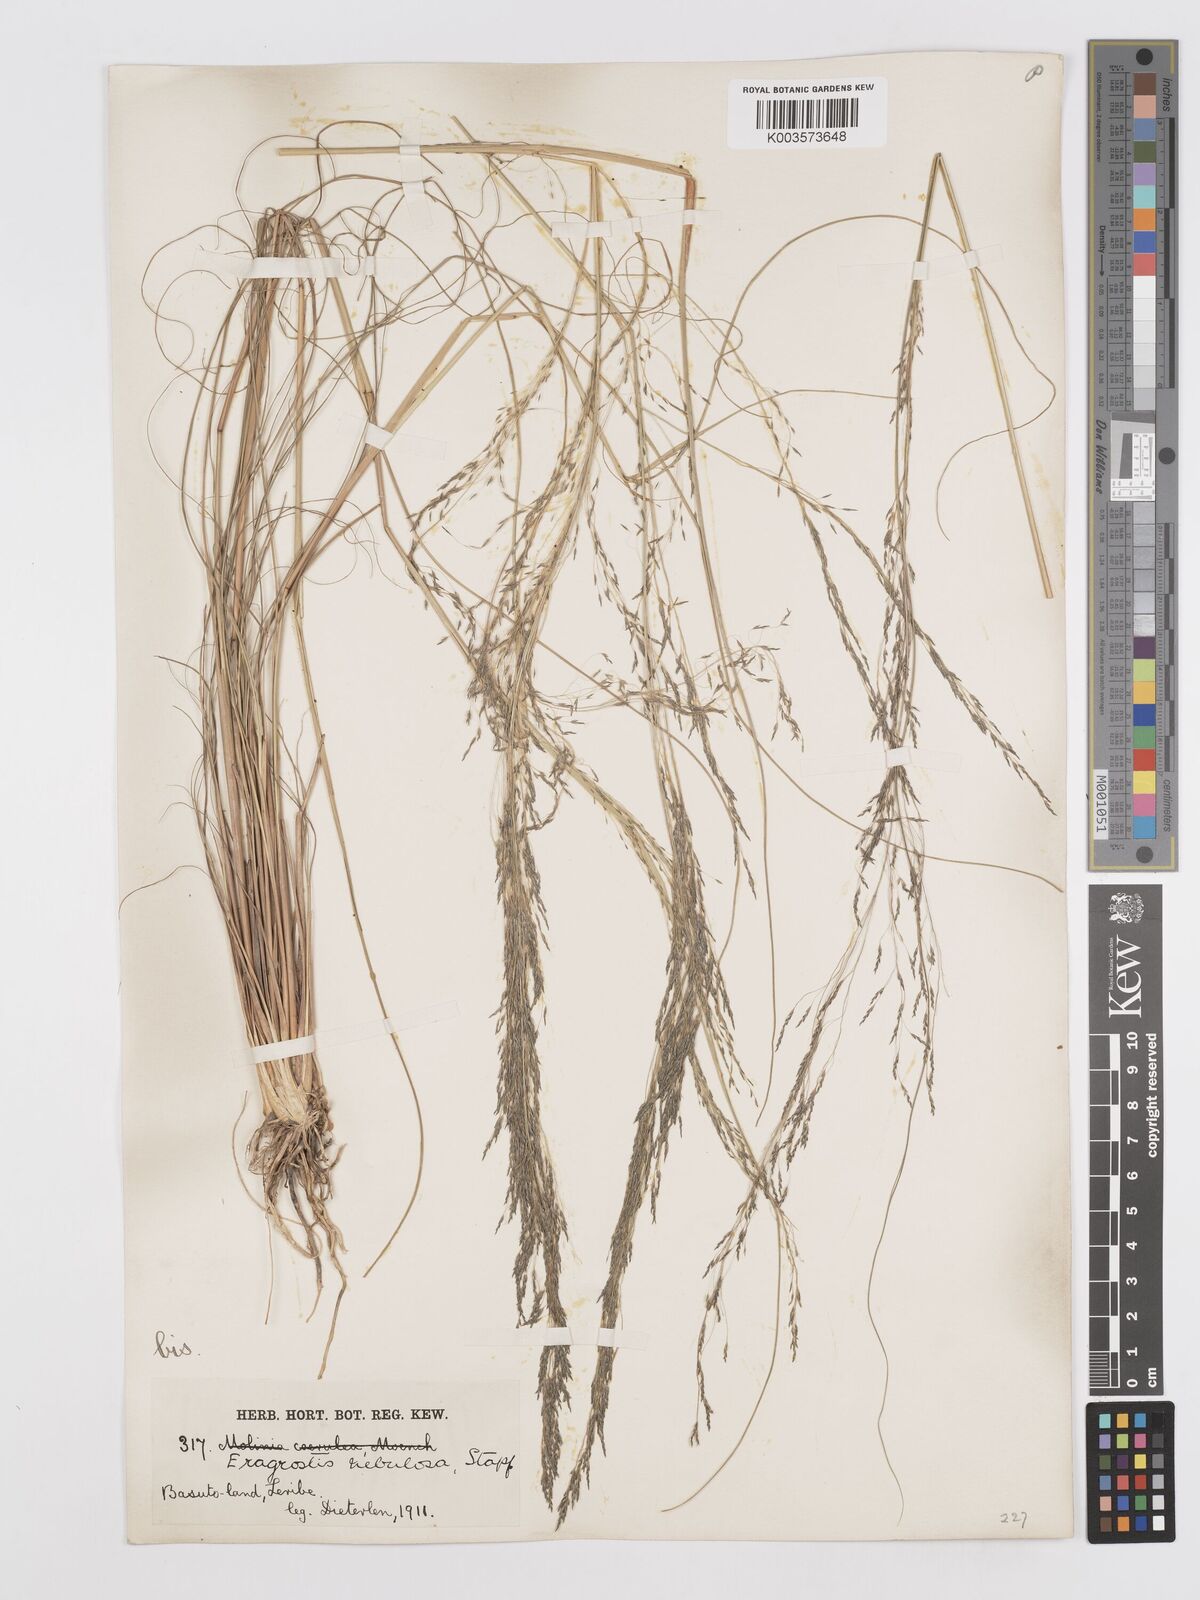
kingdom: Plantae
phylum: Tracheophyta
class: Liliopsida
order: Poales
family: Poaceae
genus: Eragrostis
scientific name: Eragrostis planiculmis
